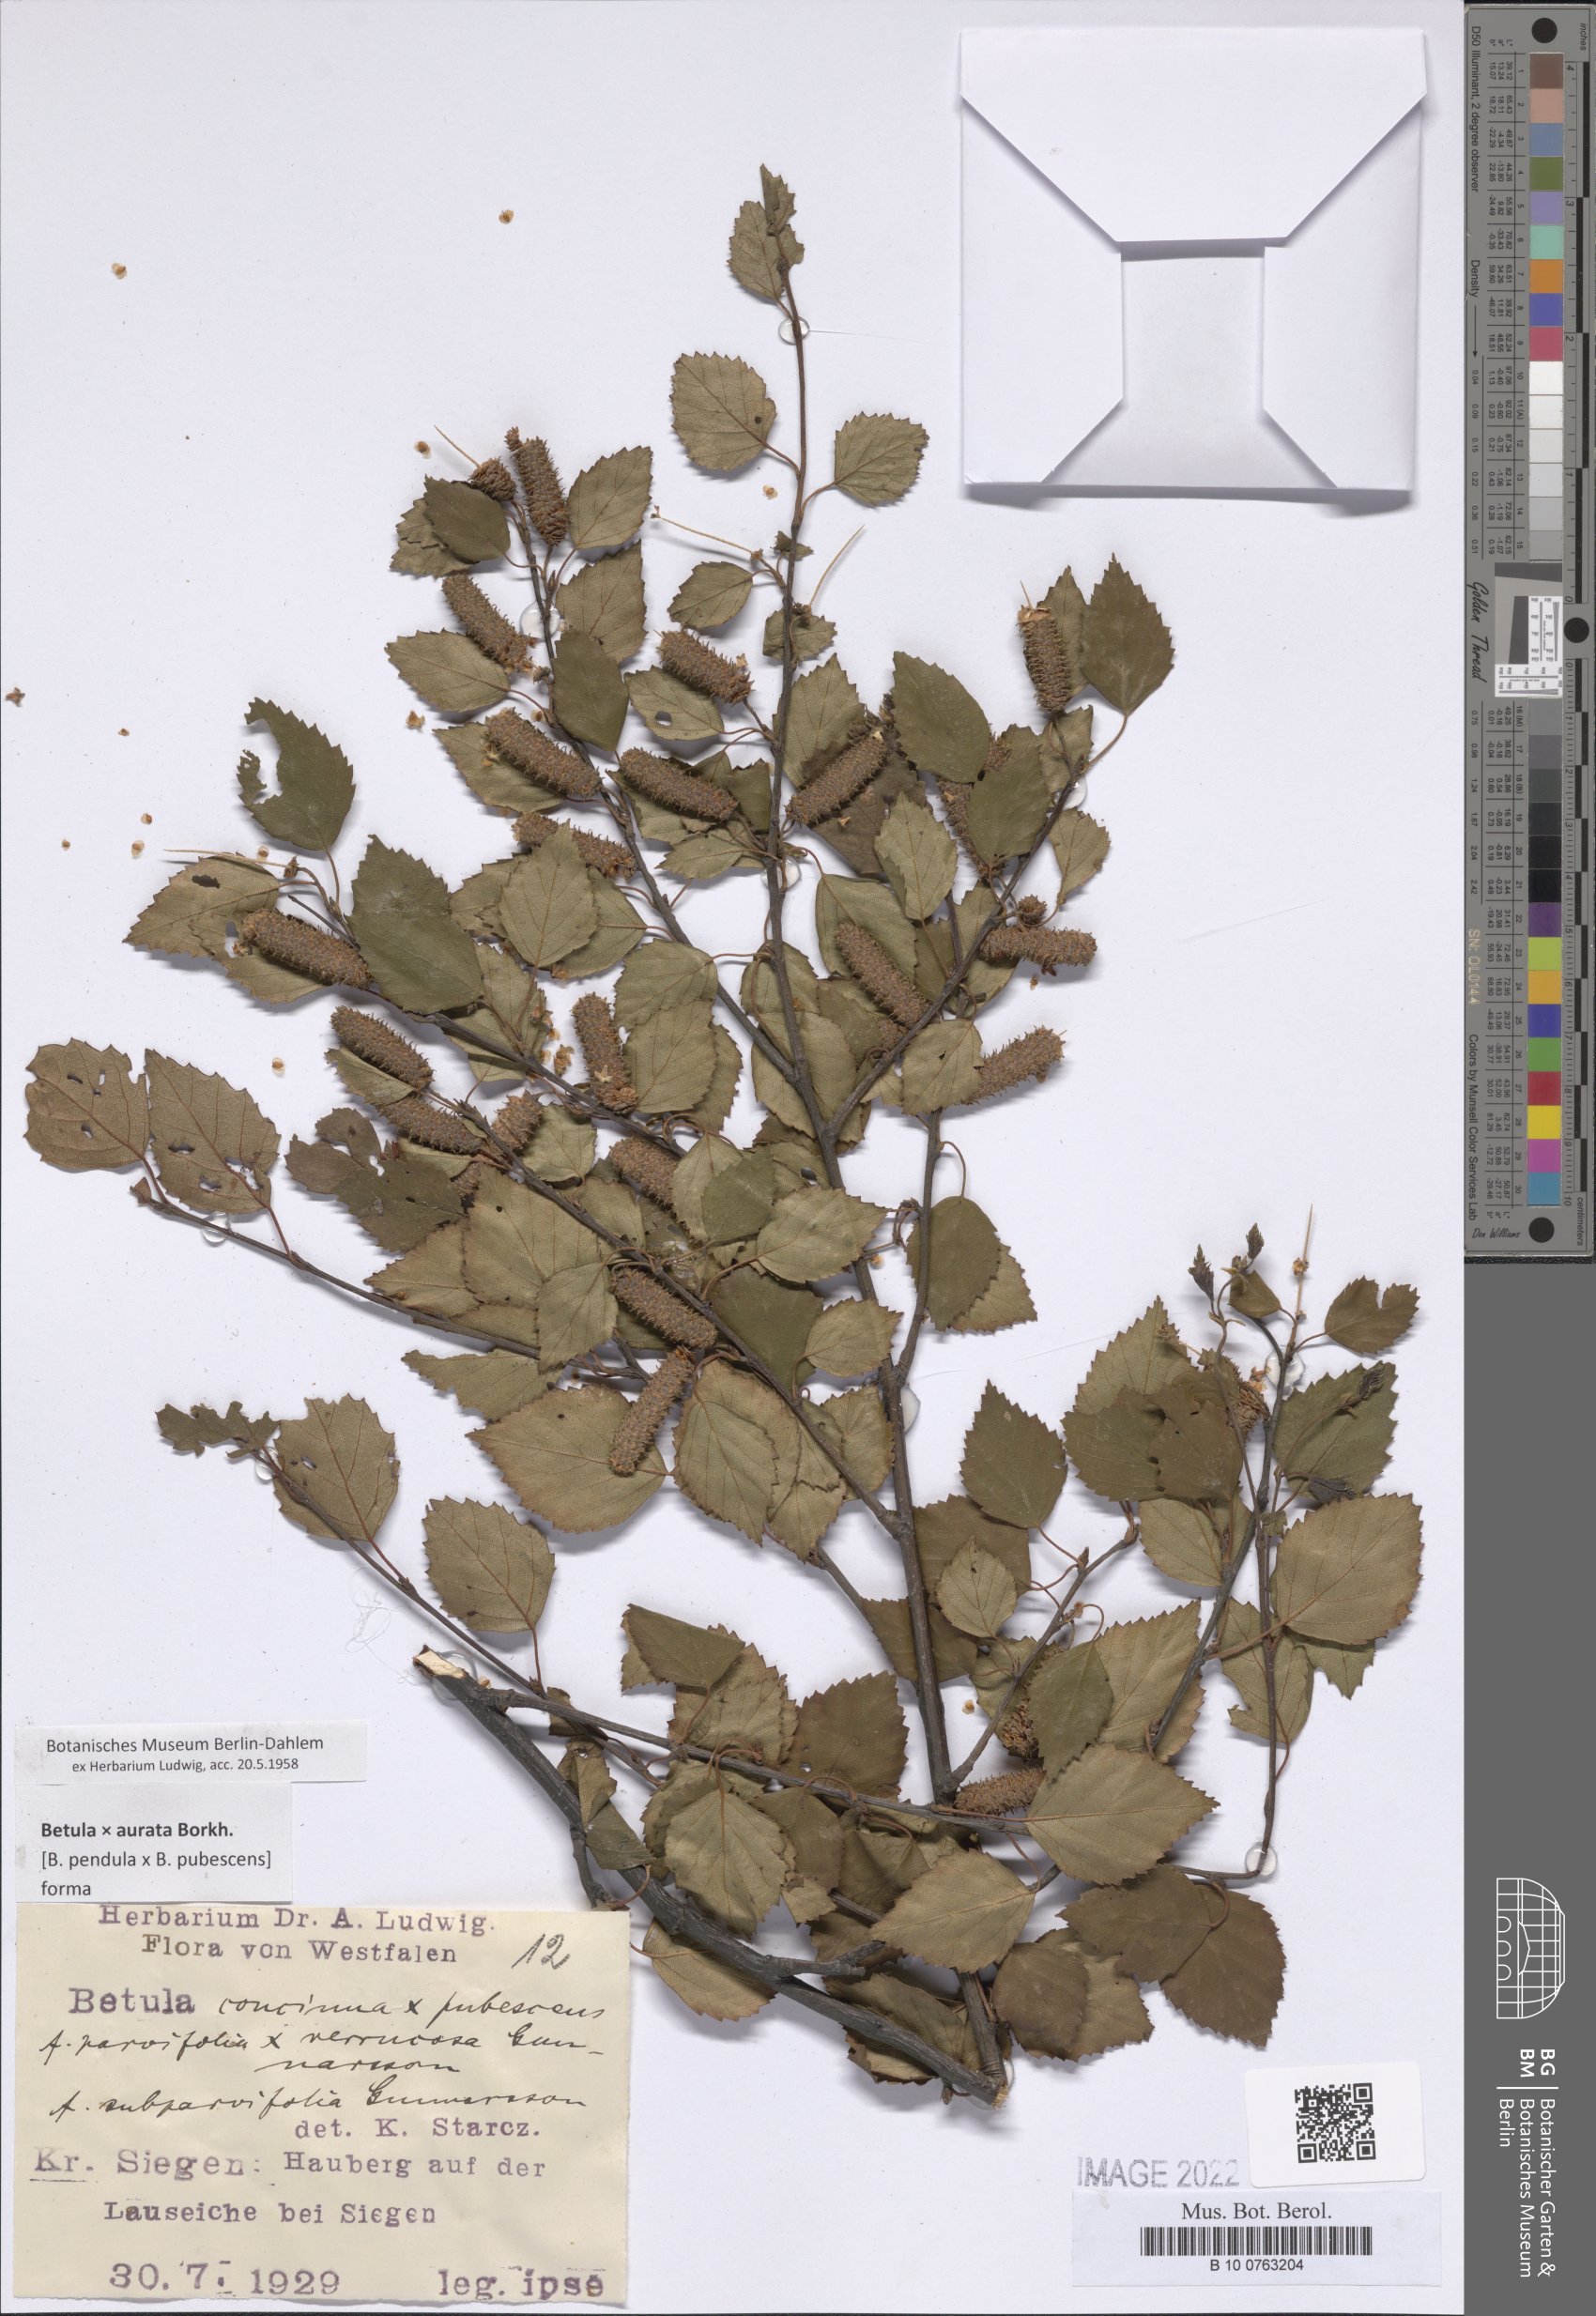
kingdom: Plantae
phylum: Tracheophyta
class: Magnoliopsida
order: Santalales
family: Loranthaceae
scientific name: Loranthaceae
